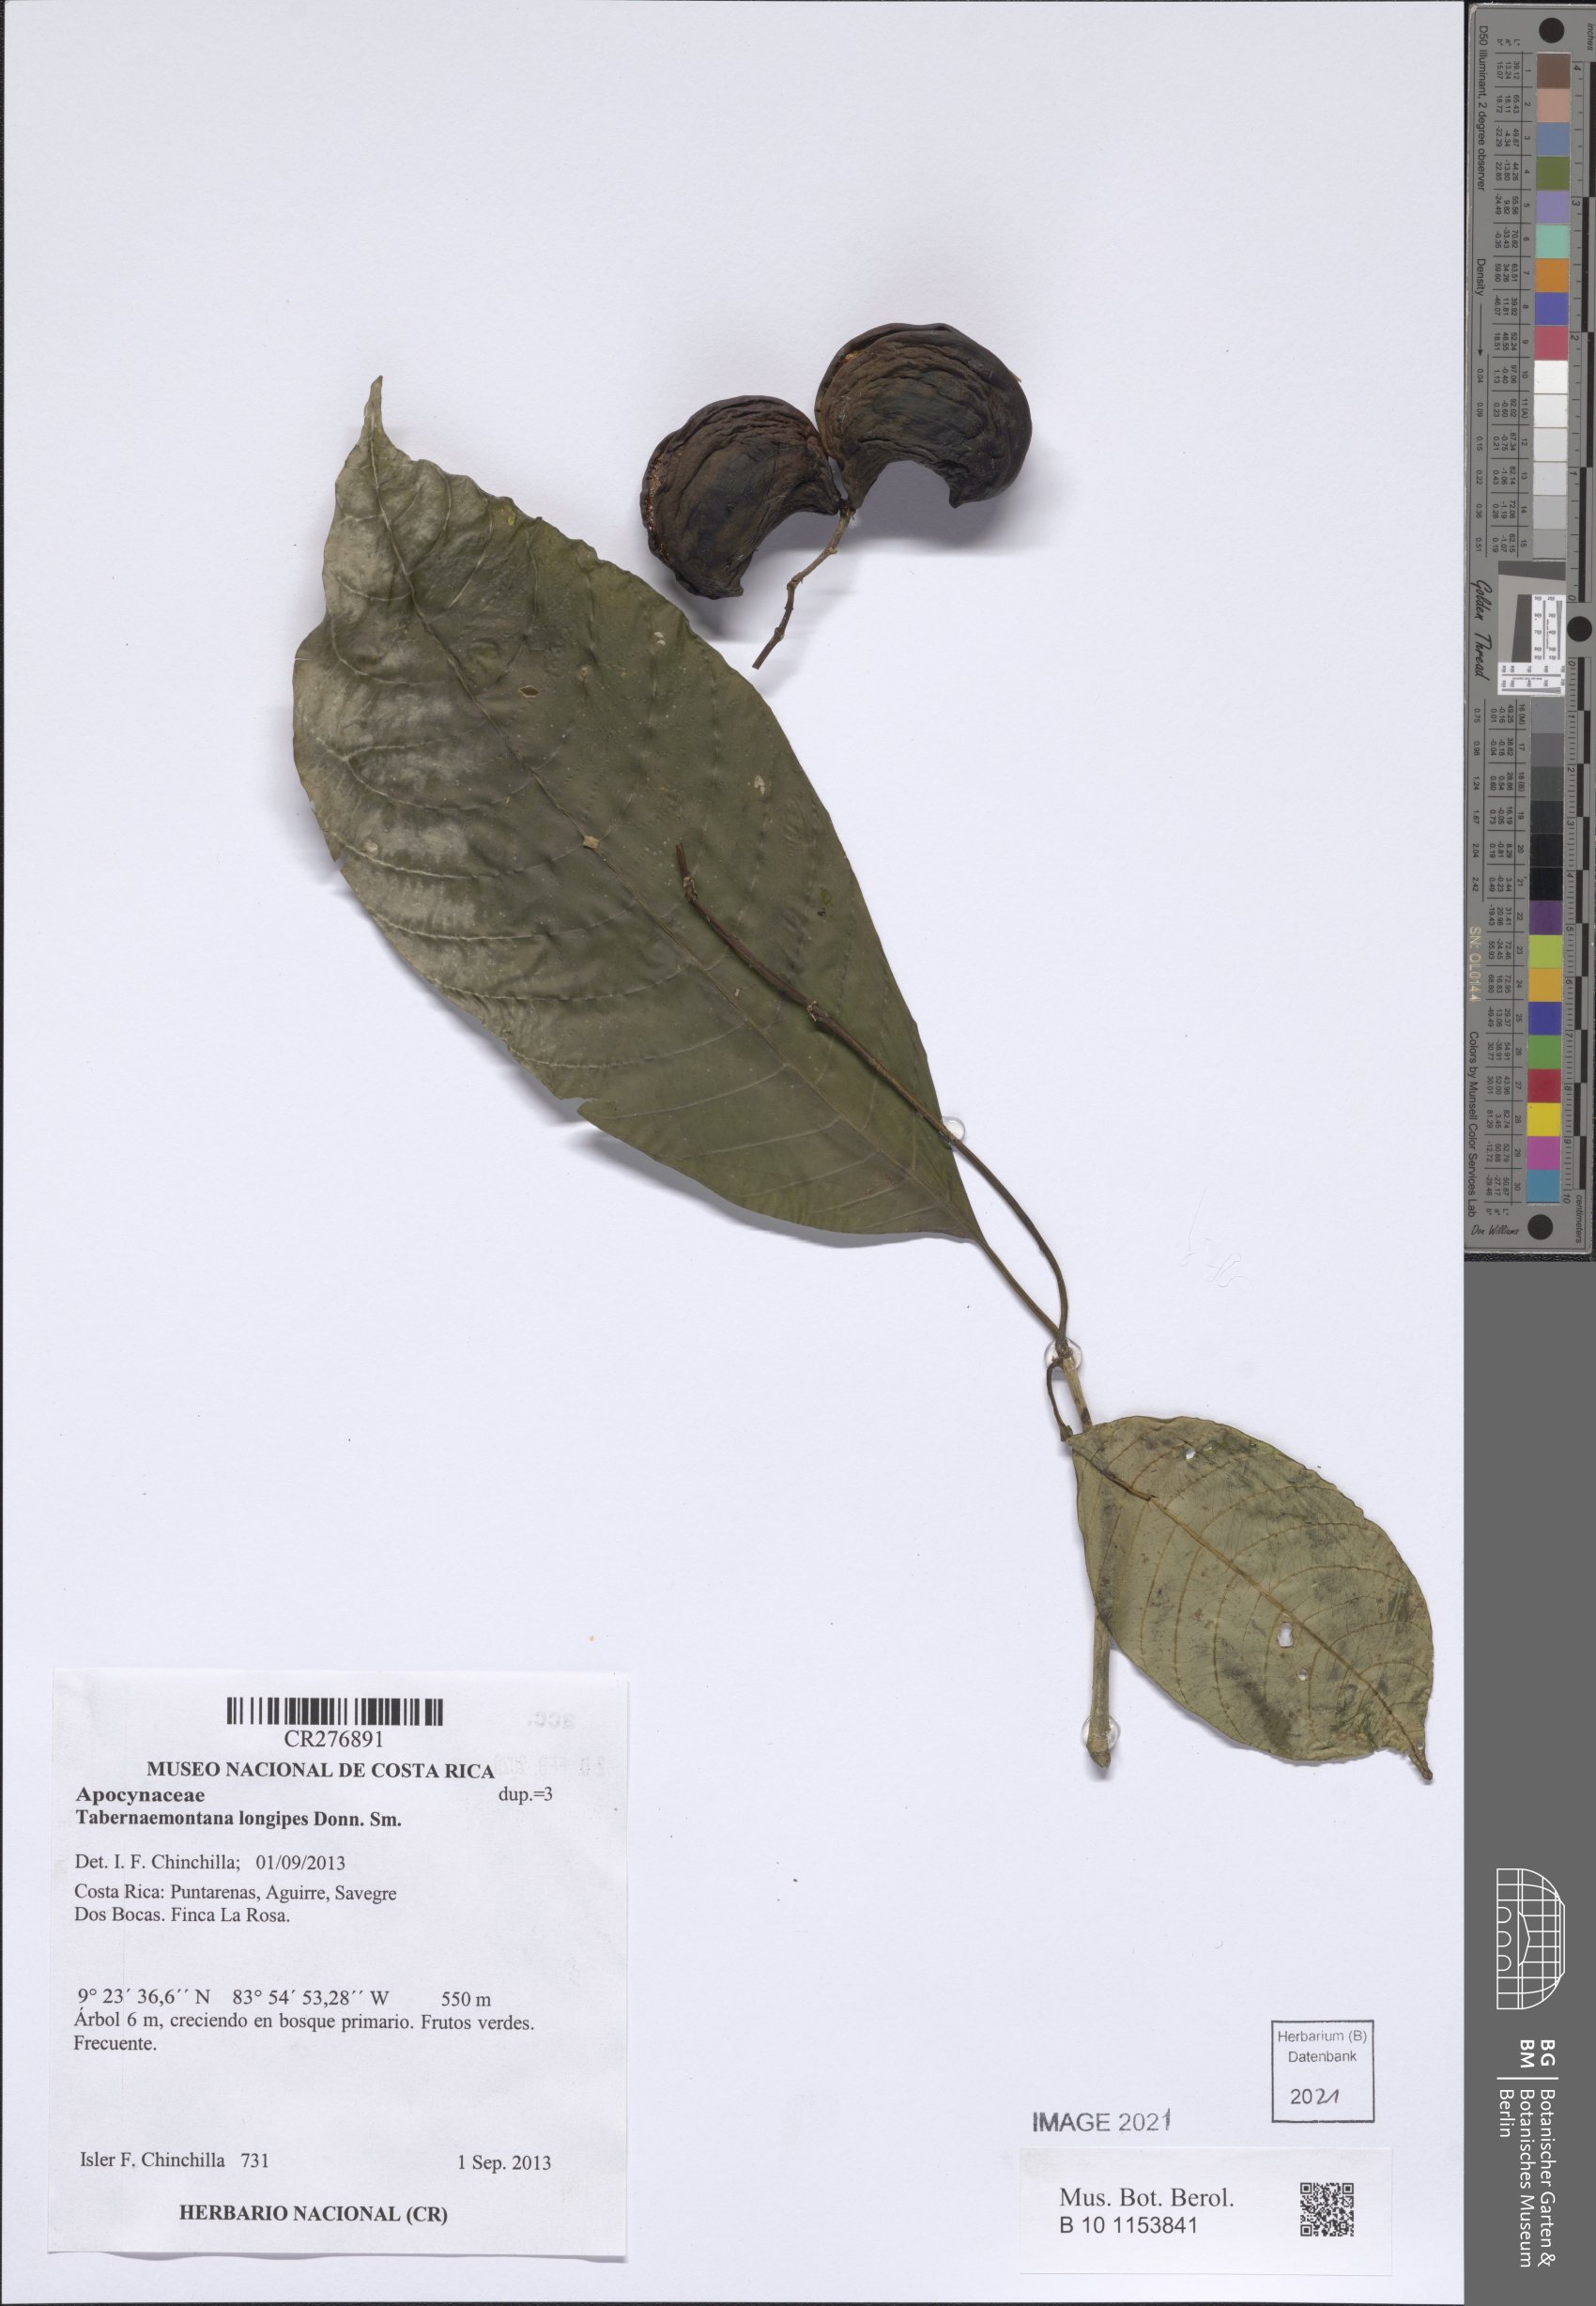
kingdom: Plantae
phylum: Tracheophyta
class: Magnoliopsida
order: Gentianales
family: Apocynaceae
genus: Tabernaemontana
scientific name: Tabernaemontana longipes
